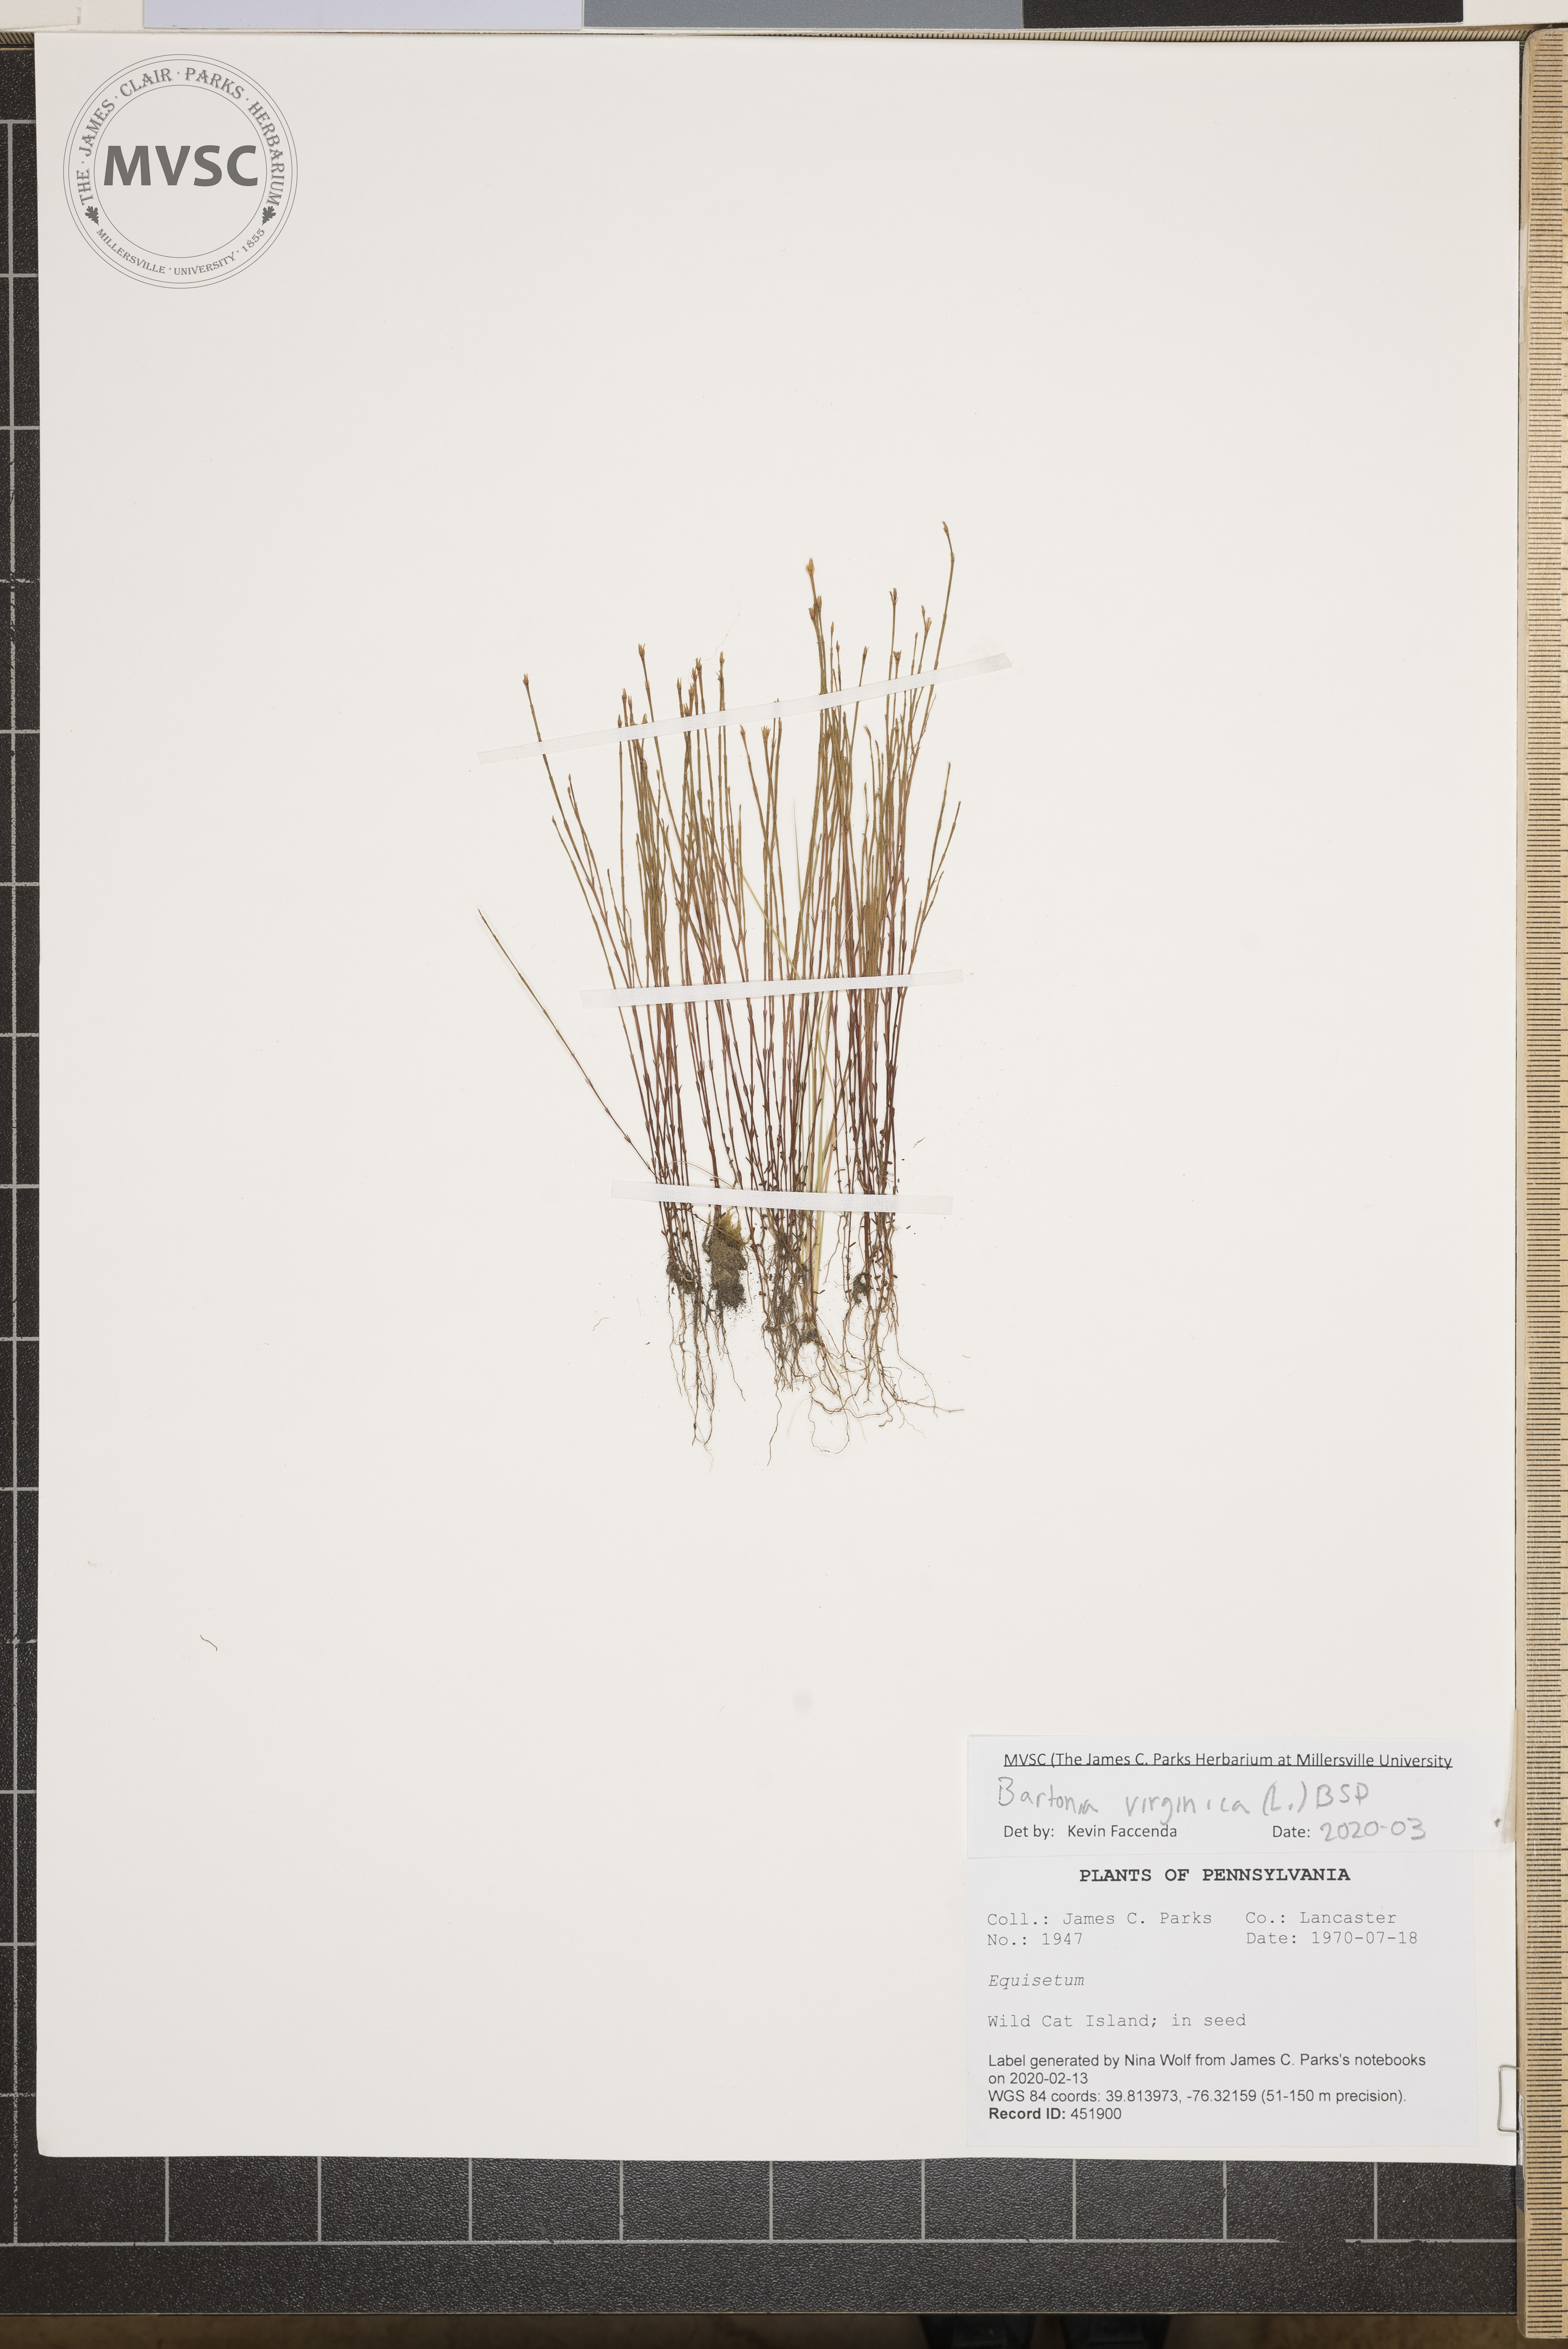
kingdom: Plantae
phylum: Tracheophyta
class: Magnoliopsida
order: Gentianales
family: Gentianaceae
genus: Bartonia
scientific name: Bartonia virginica
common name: Yellow bartonia
